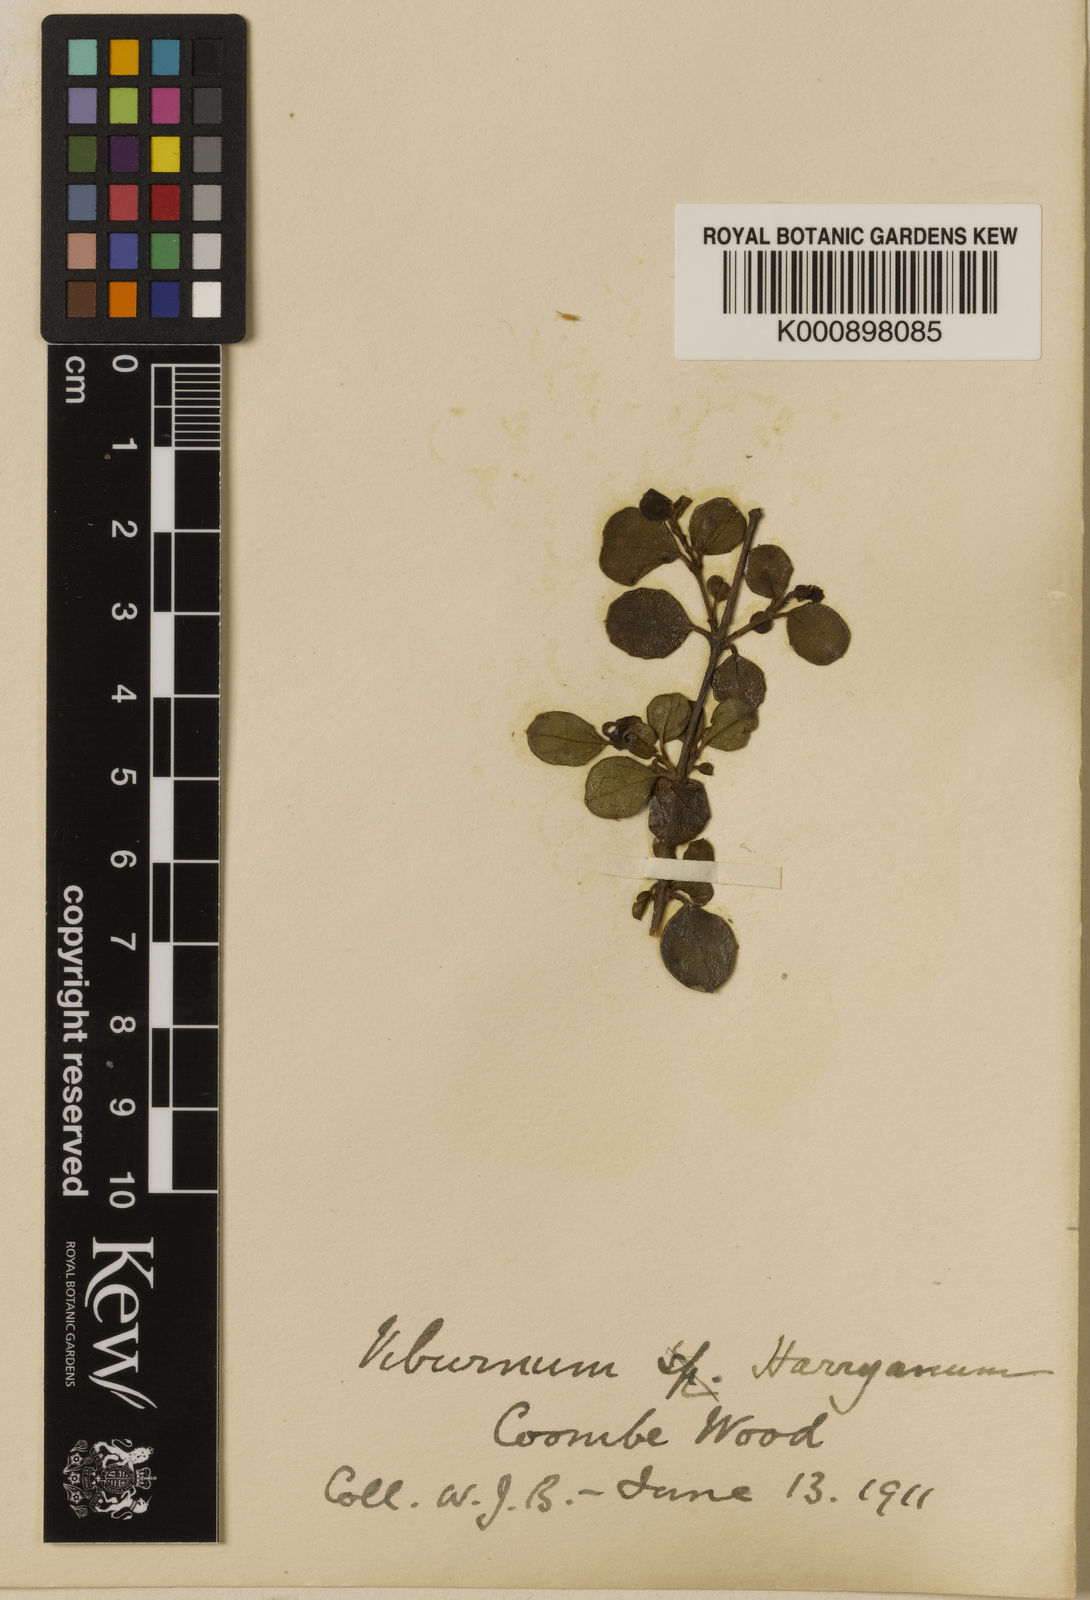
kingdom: Plantae
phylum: Tracheophyta
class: Magnoliopsida
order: Dipsacales
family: Viburnaceae
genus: Viburnum
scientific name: Viburnum atrocyaneum
